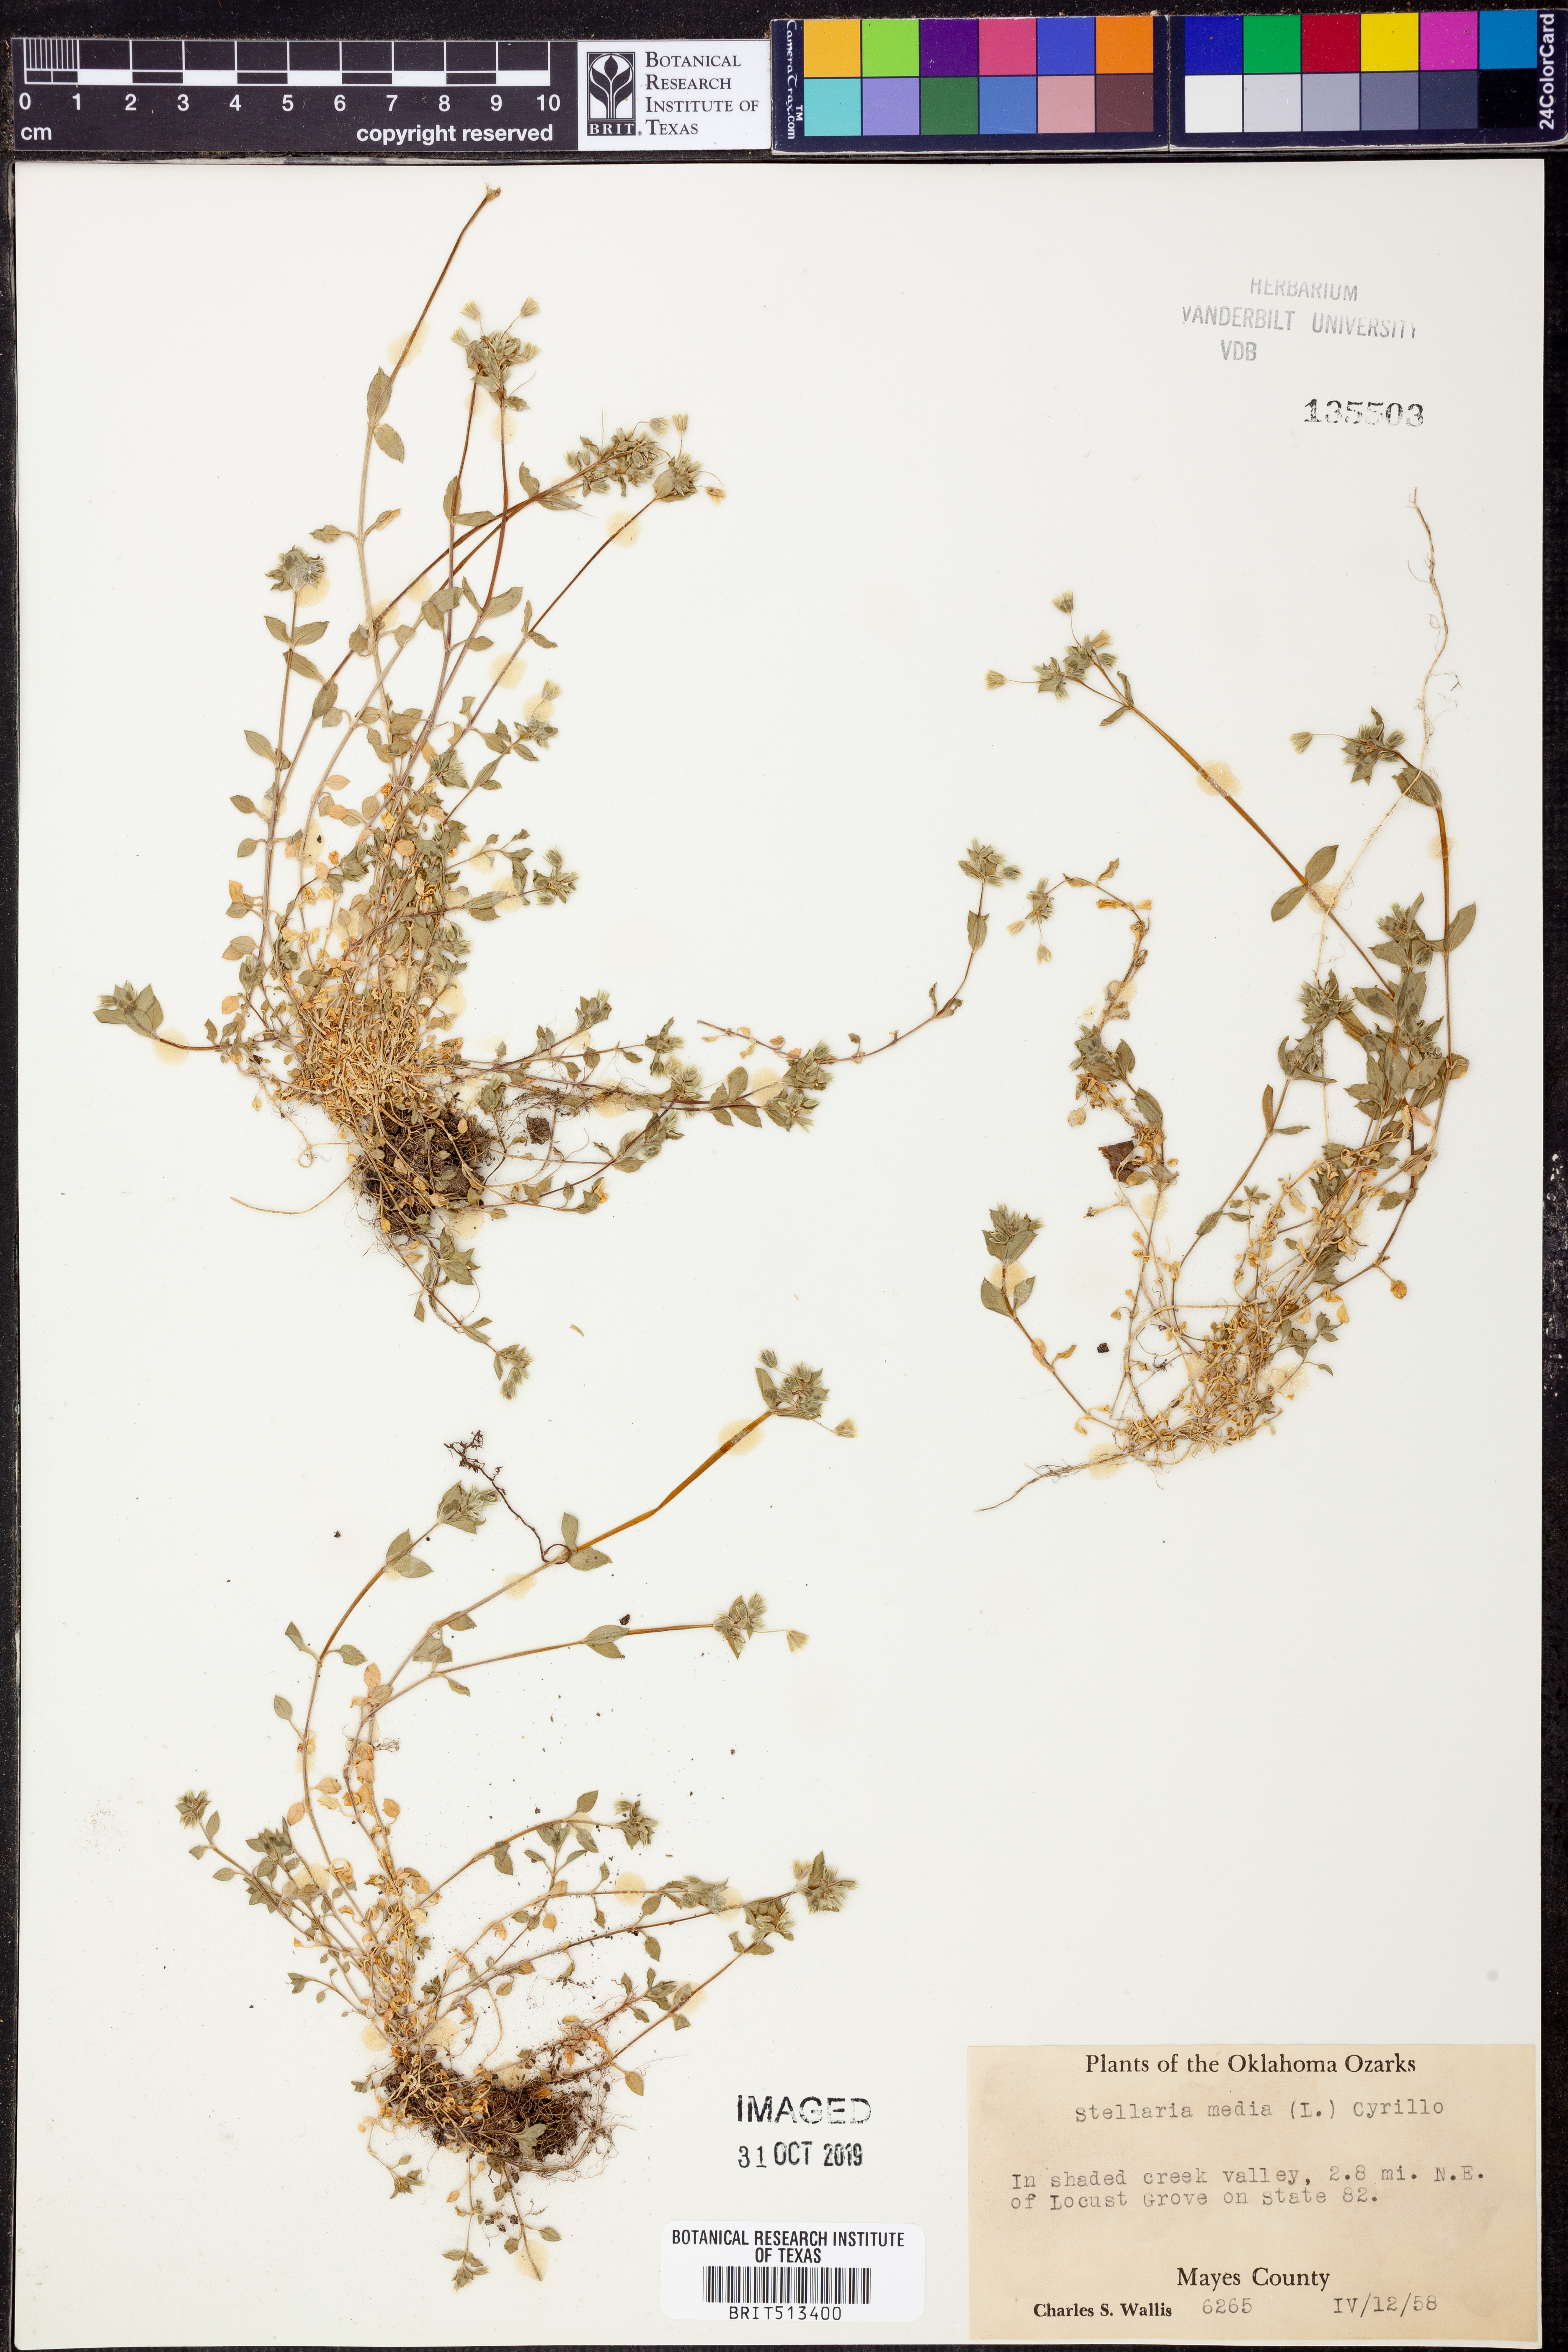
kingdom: Plantae
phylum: Tracheophyta
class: Magnoliopsida
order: Caryophyllales
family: Caryophyllaceae
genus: Stellaria
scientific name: Stellaria media
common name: Common chickweed
